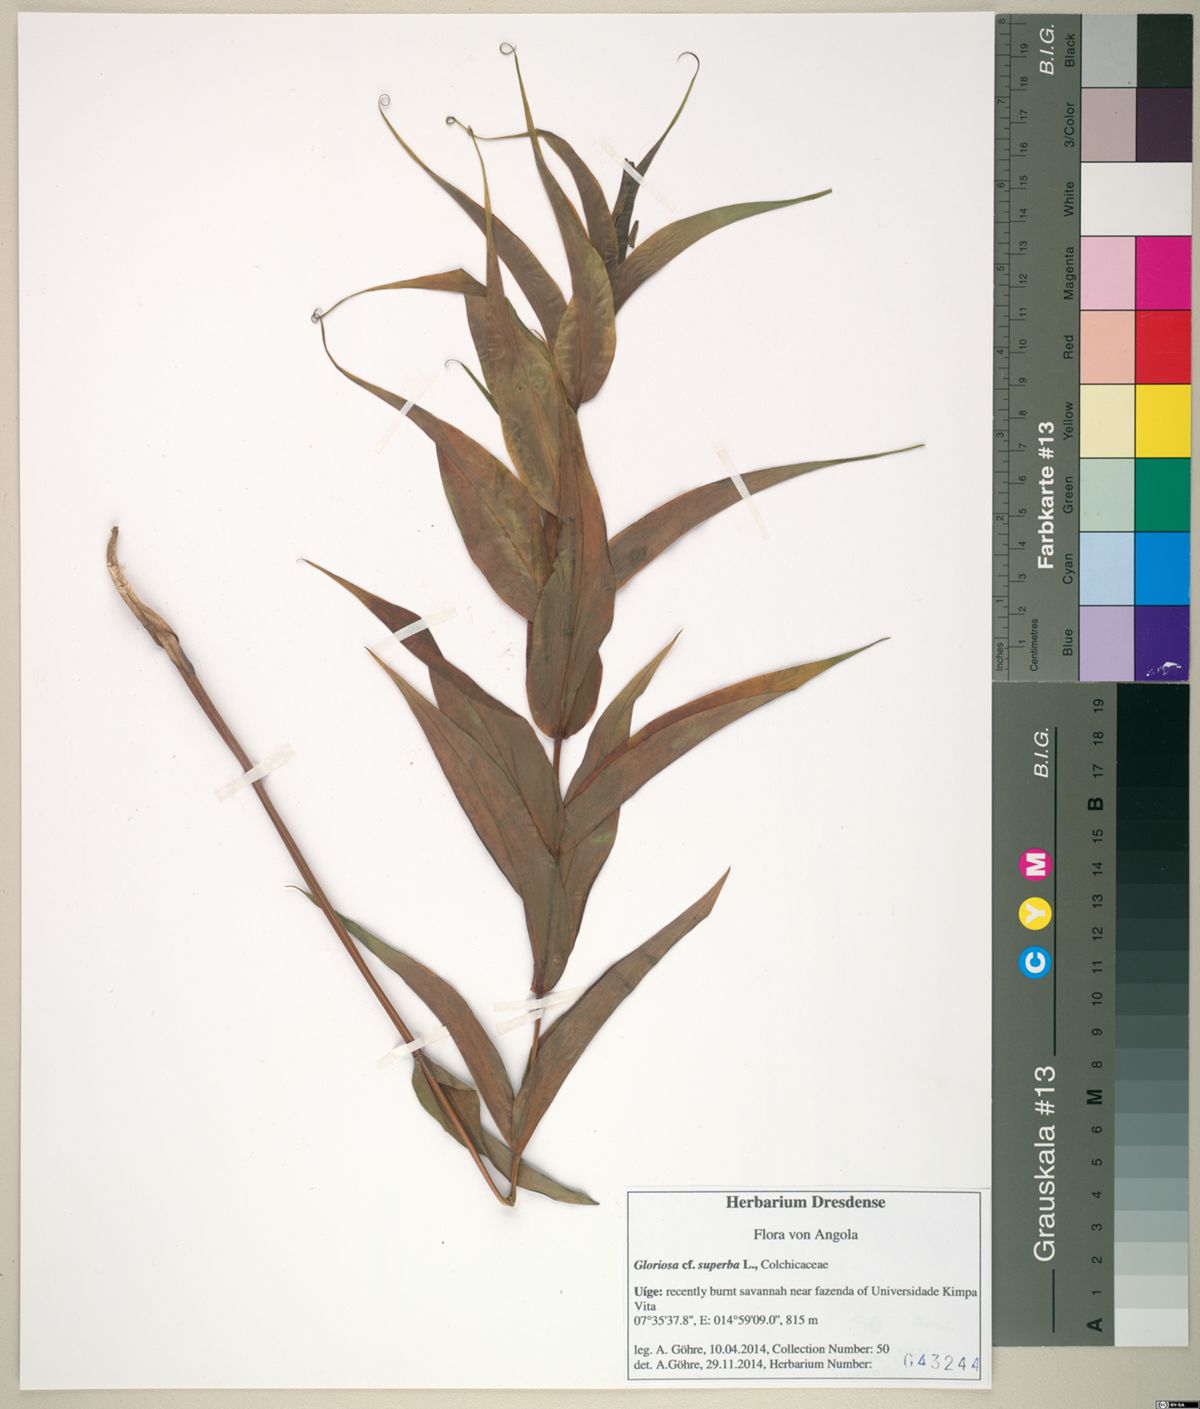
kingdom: Plantae
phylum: Tracheophyta
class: Liliopsida
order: Liliales
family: Colchicaceae
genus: Gloriosa
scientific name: Gloriosa superba
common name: Flame lily
